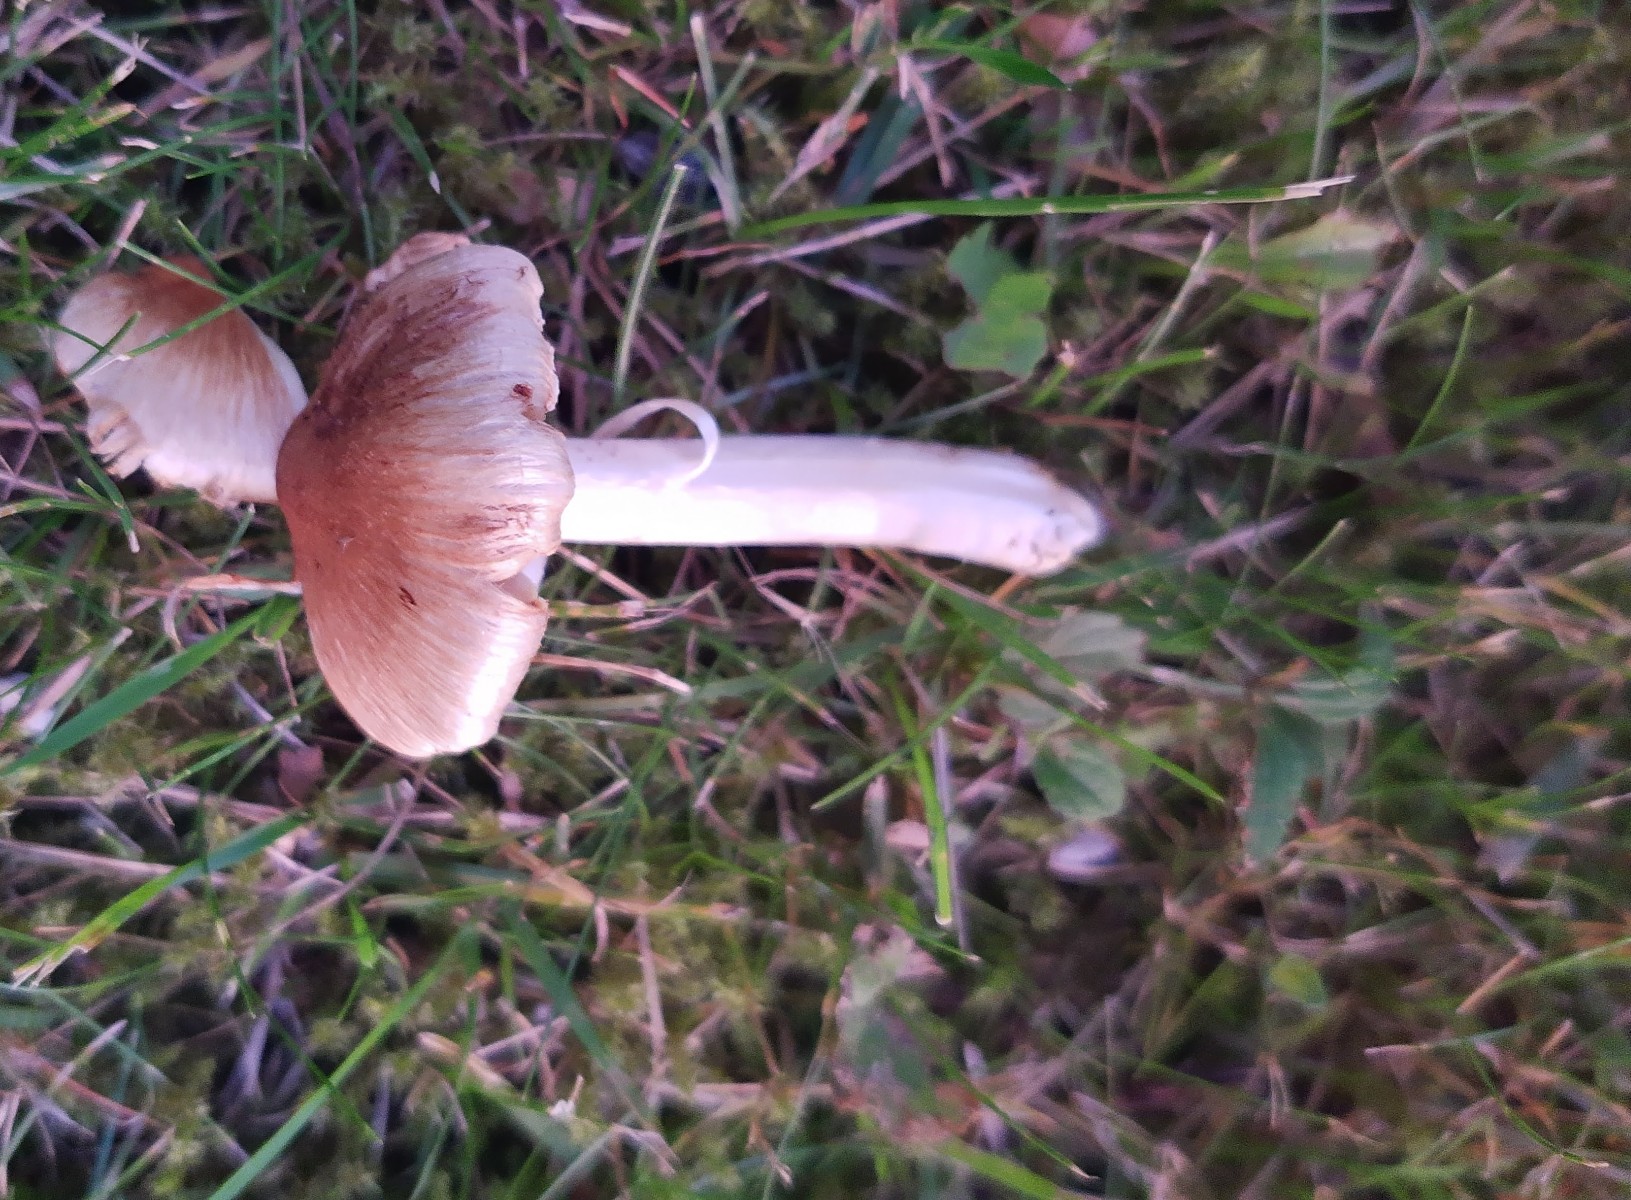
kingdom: Fungi
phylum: Basidiomycota
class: Agaricomycetes
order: Agaricales
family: Inocybaceae
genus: Pseudosperma
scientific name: Pseudosperma
